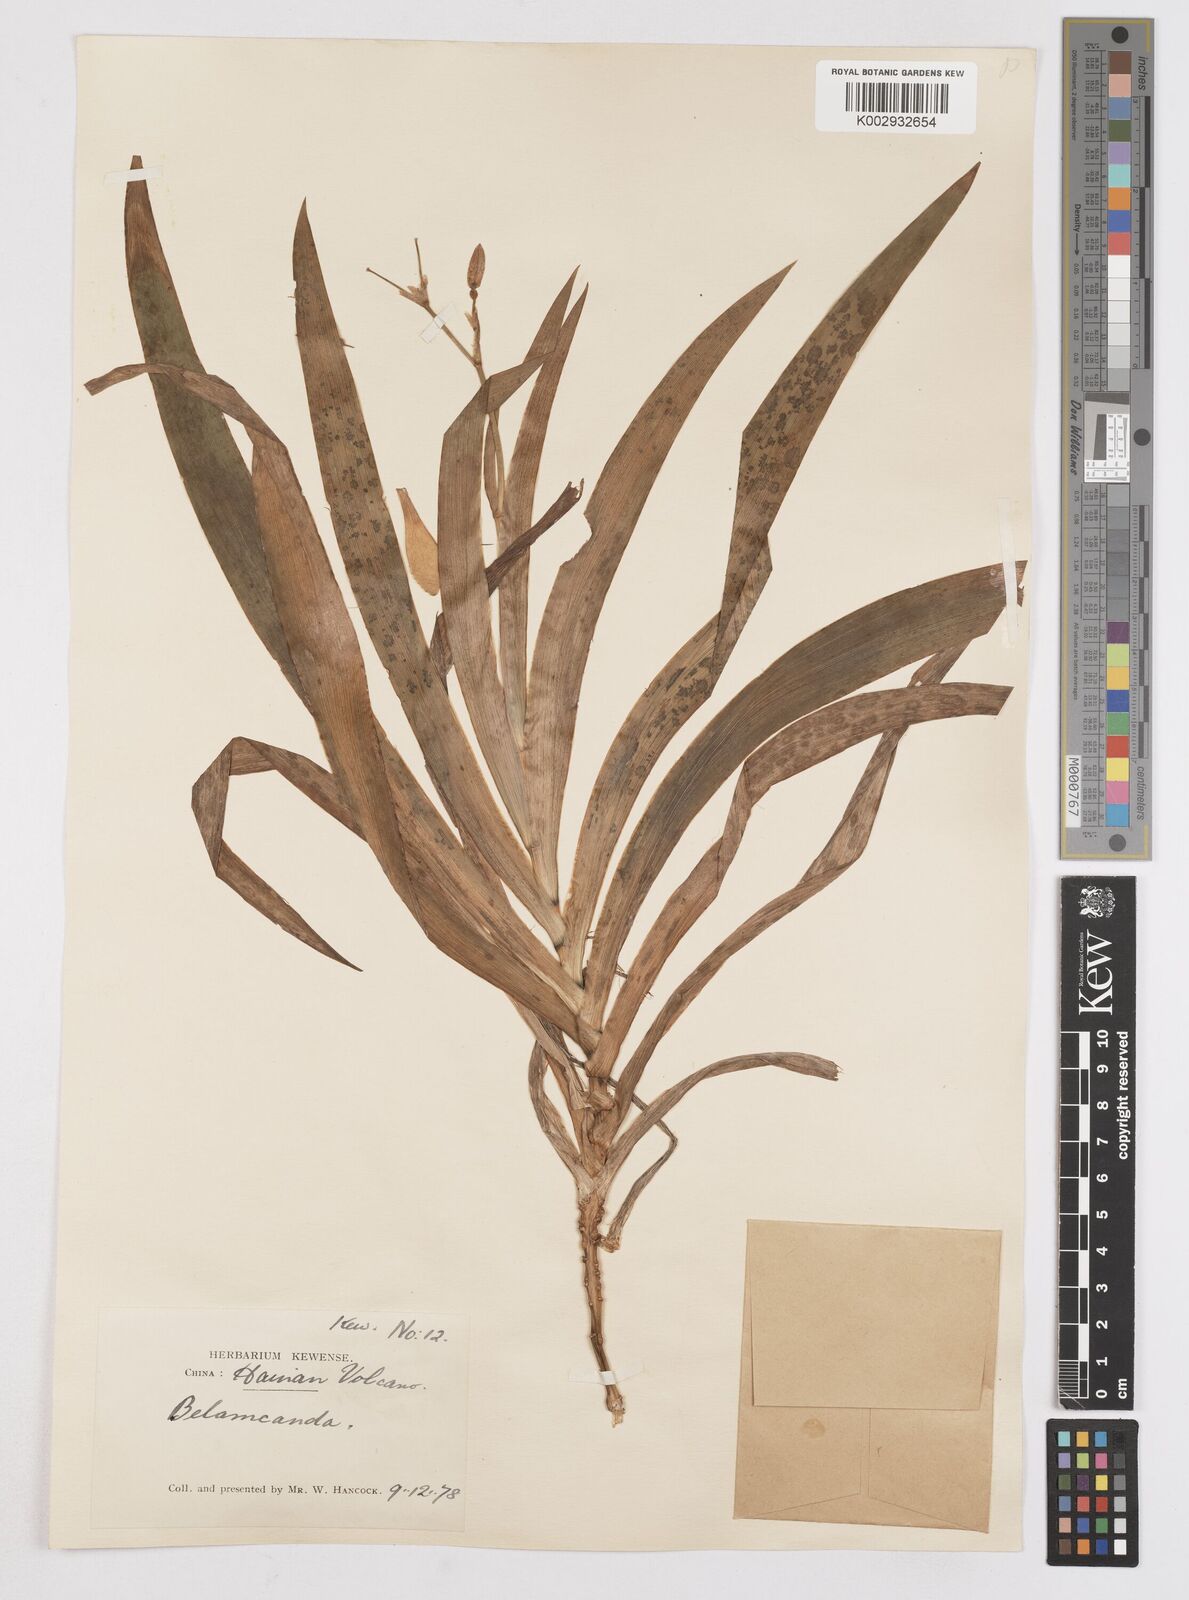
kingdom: Plantae
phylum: Tracheophyta
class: Liliopsida
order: Asparagales
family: Iridaceae
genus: Iris
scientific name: Iris
